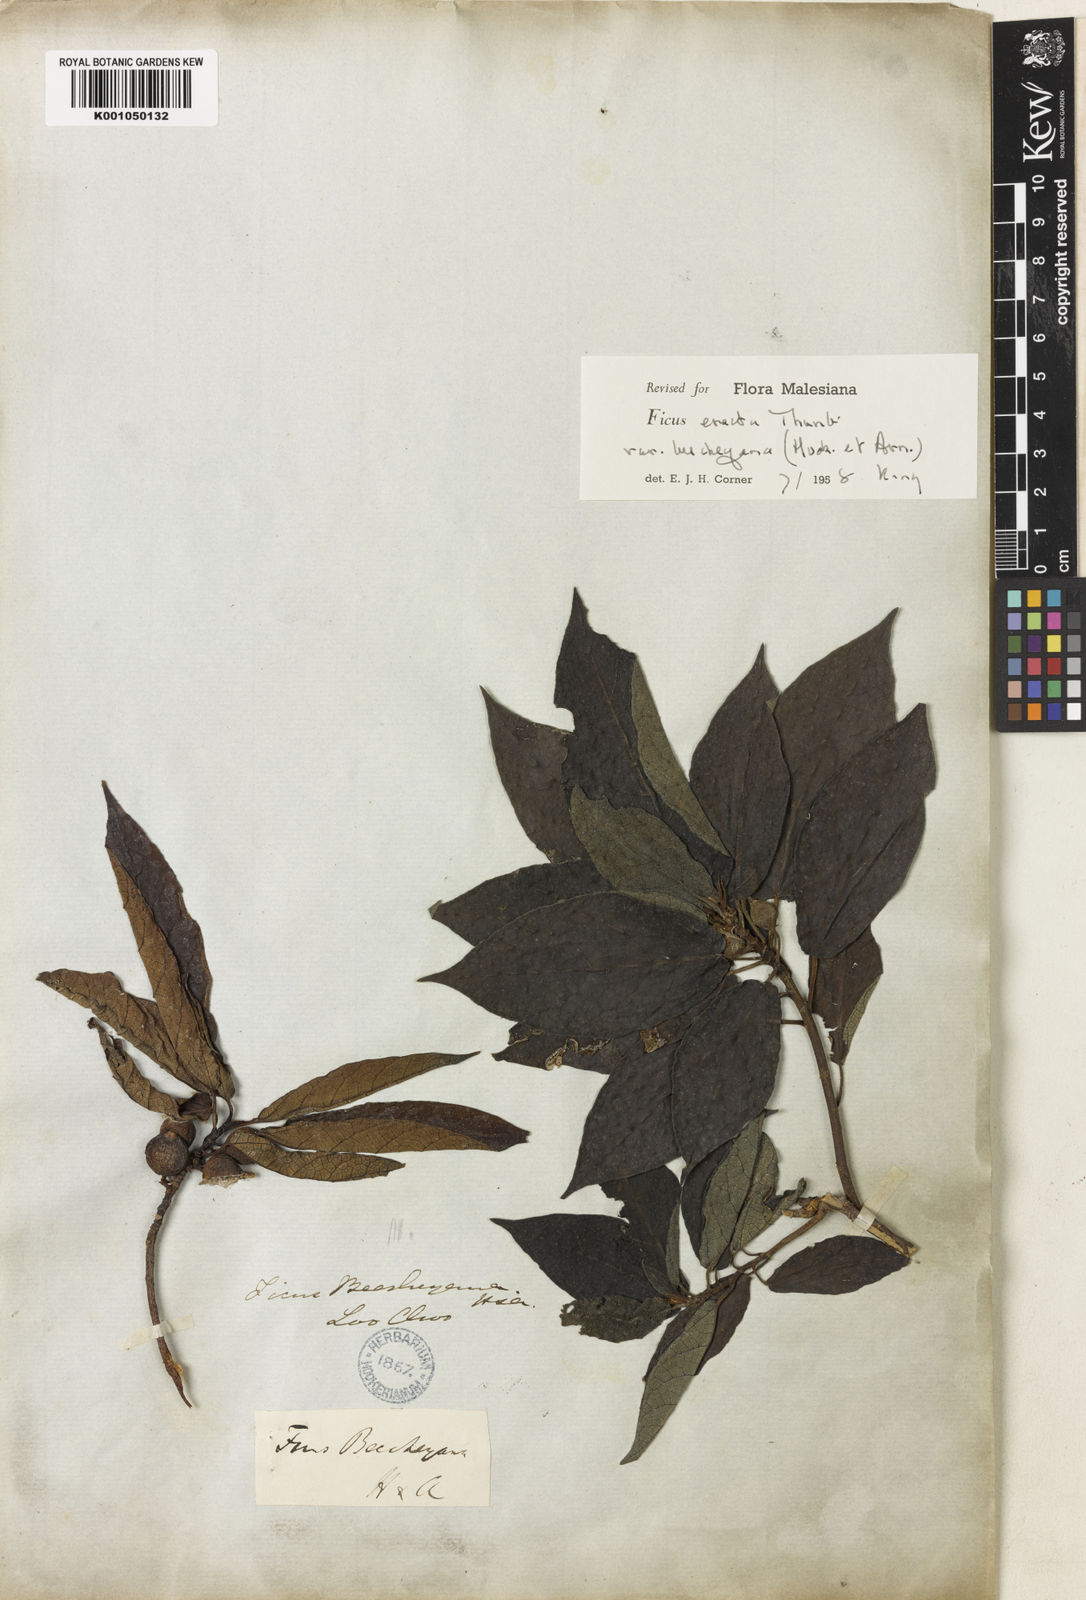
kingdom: Plantae
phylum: Tracheophyta
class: Magnoliopsida
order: Rosales
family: Moraceae
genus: Ficus
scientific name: Ficus erecta
